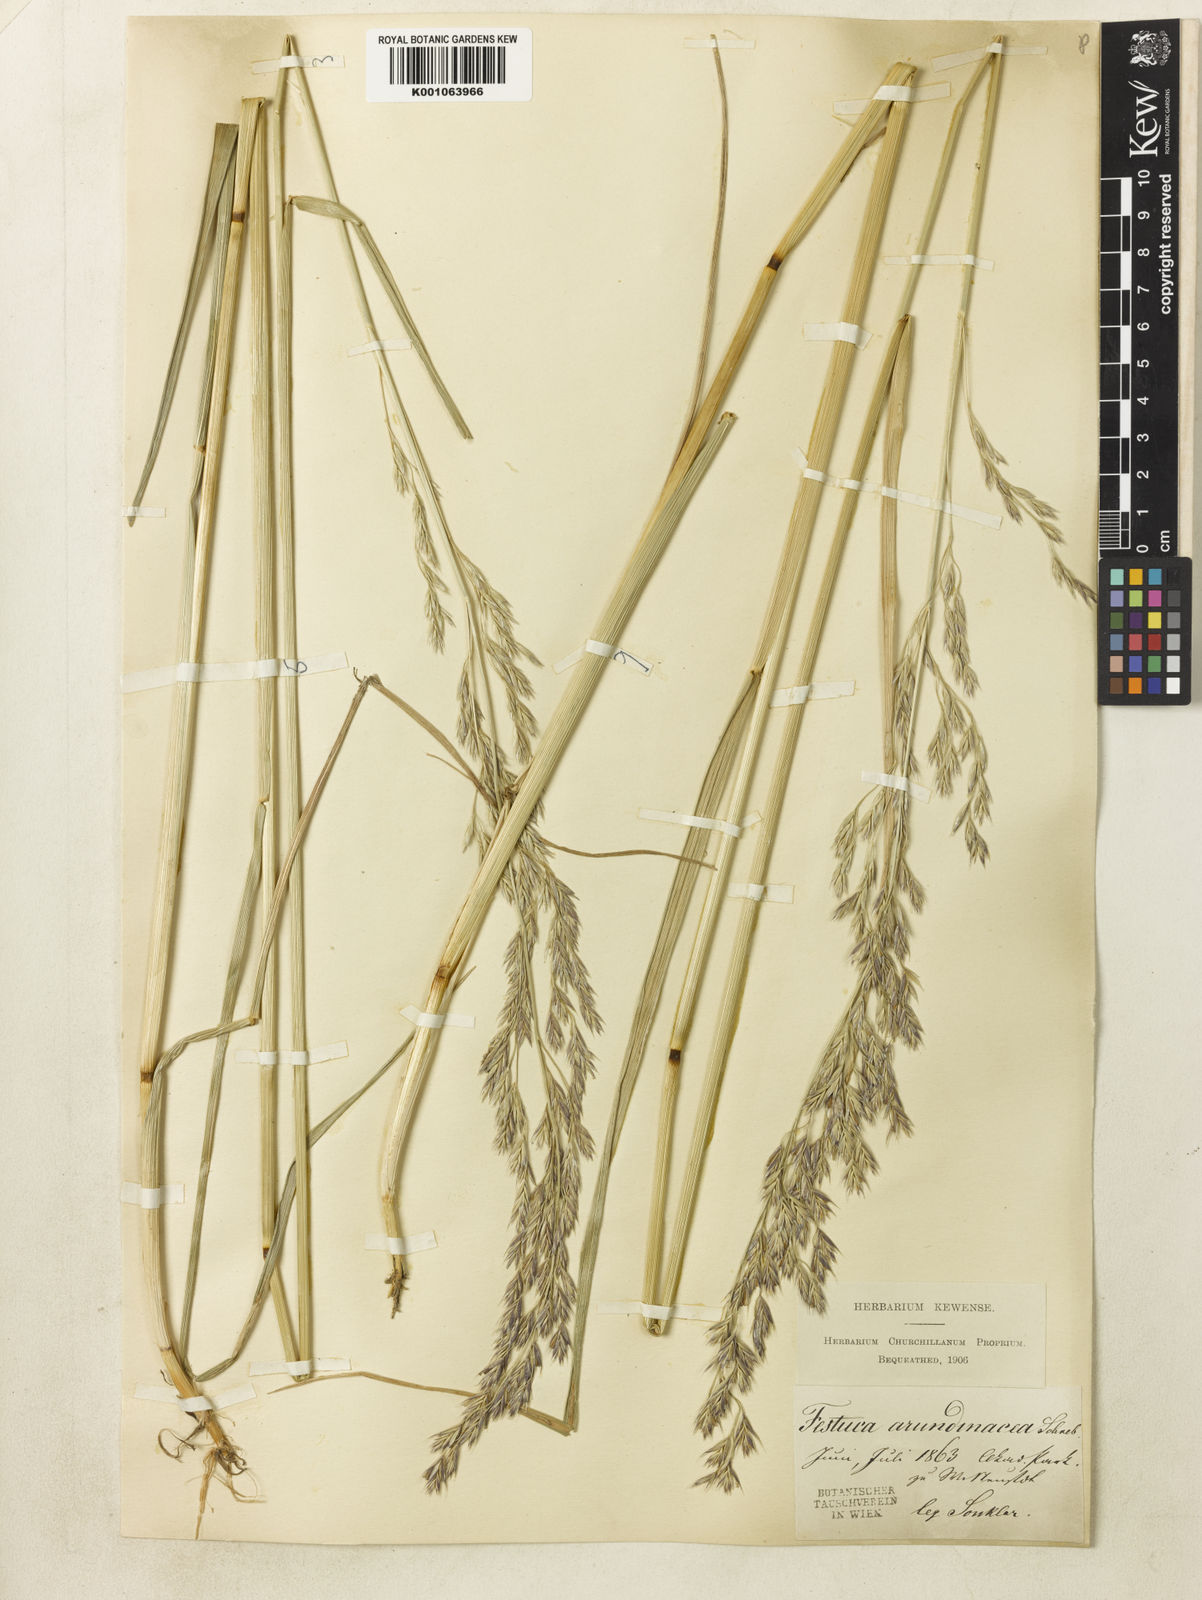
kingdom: Plantae
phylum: Tracheophyta
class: Liliopsida
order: Poales
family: Poaceae
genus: Lolium
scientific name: Lolium arundinaceum
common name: Reed fescue
